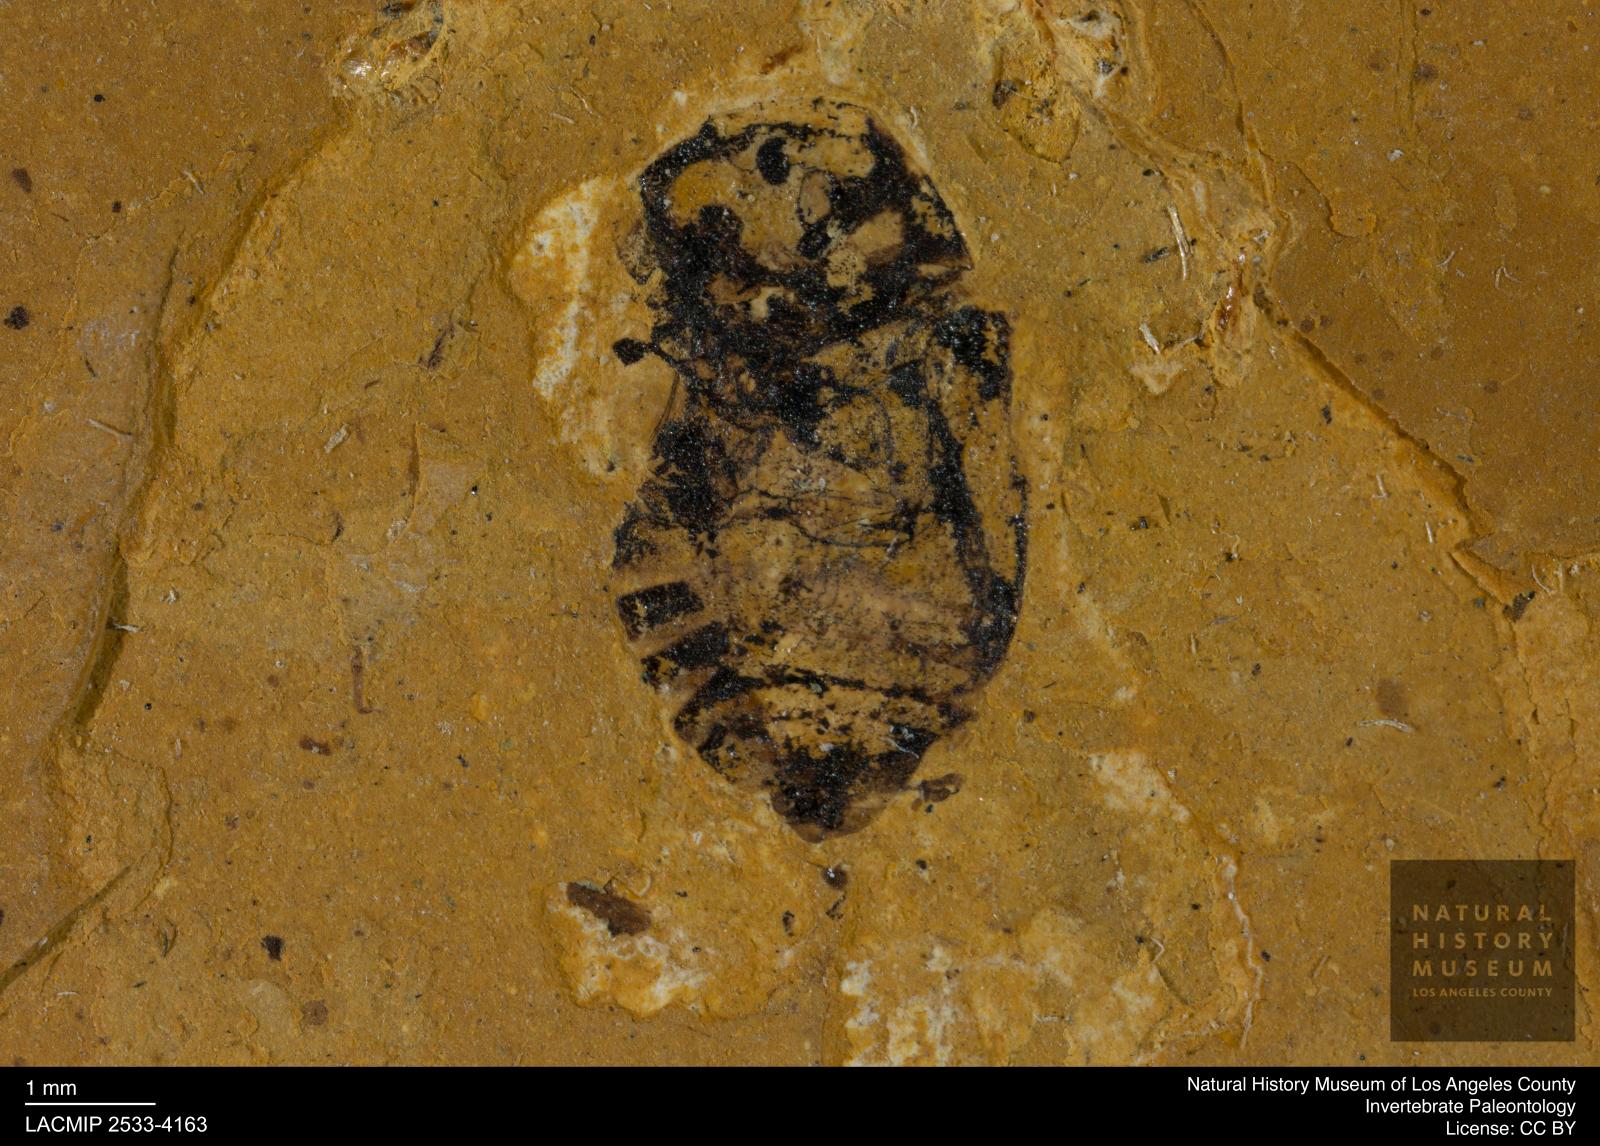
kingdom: Animalia
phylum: Arthropoda
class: Insecta
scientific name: Insecta
